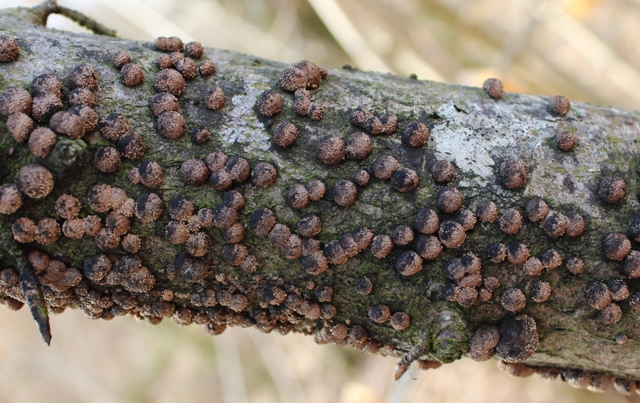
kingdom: Fungi
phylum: Ascomycota
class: Sordariomycetes
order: Xylariales
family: Hypoxylaceae
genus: Hypoxylon
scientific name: Hypoxylon fragiforme
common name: kuljordbær
